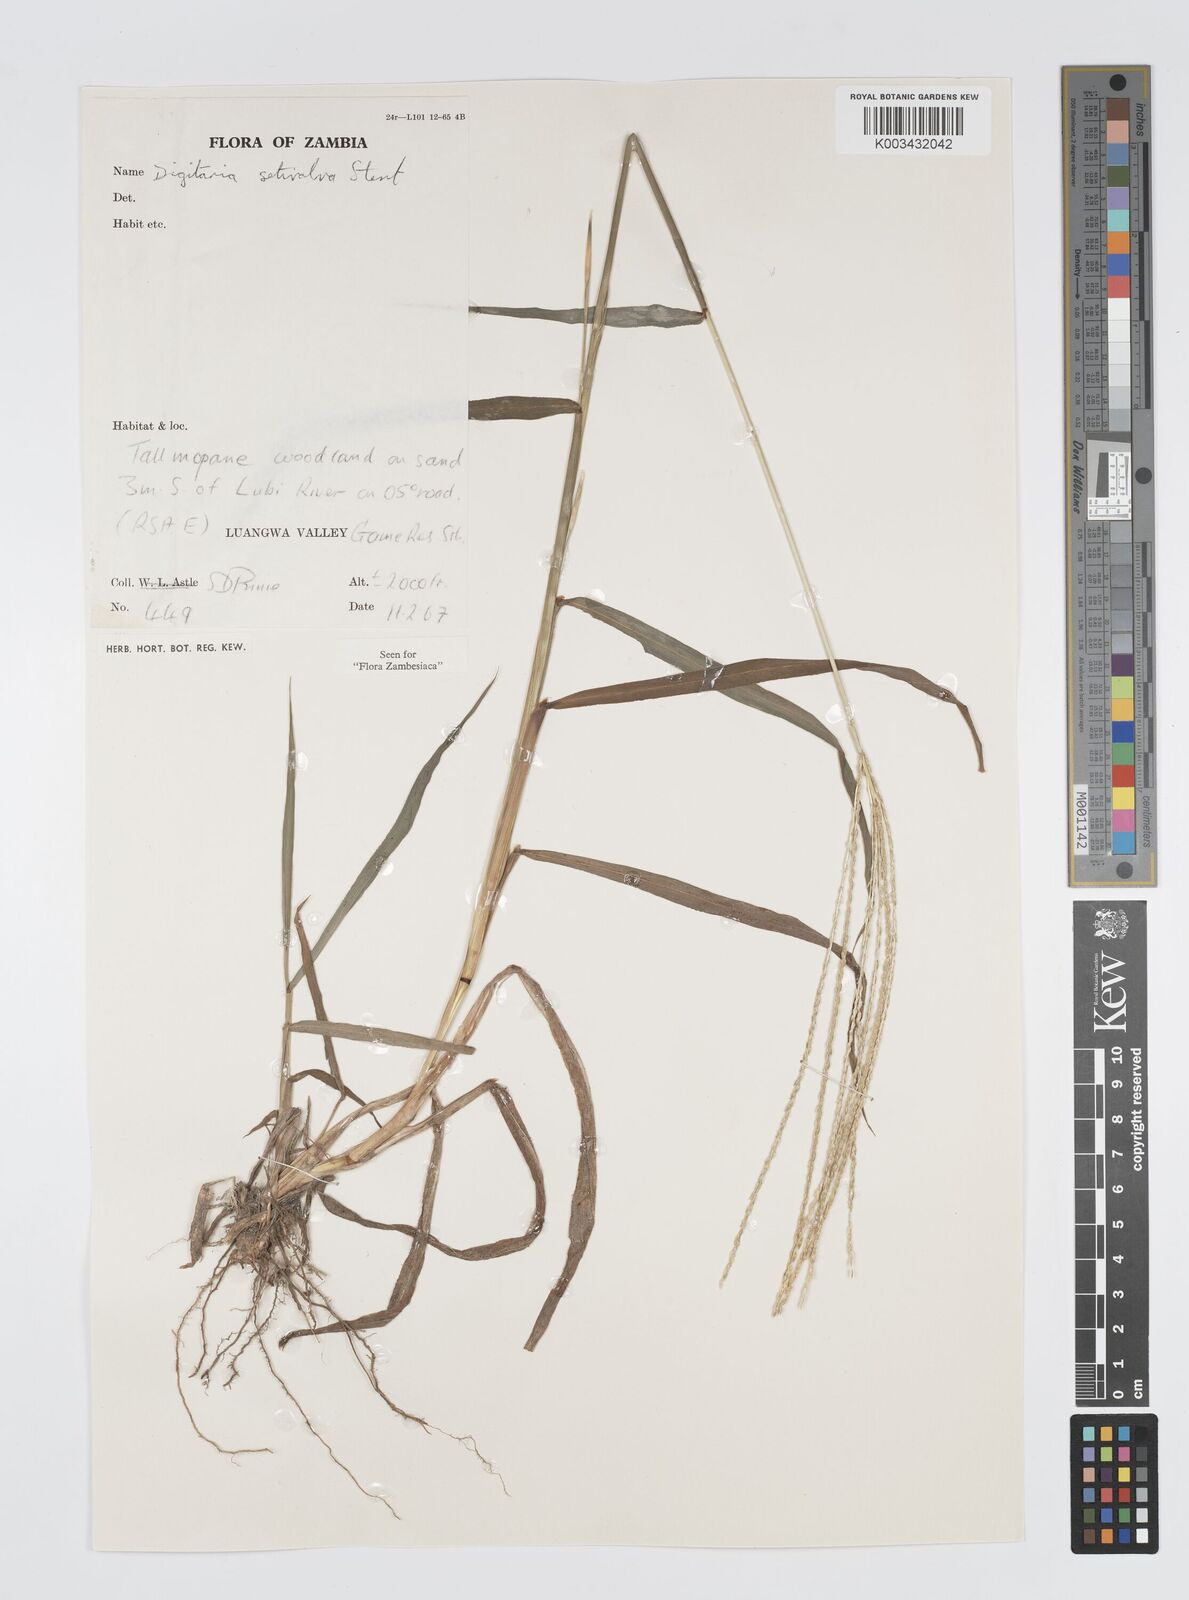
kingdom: Plantae
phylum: Tracheophyta
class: Liliopsida
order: Poales
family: Poaceae
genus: Digitaria
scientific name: Digitaria milanjiana
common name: Madagascar crabgrass
